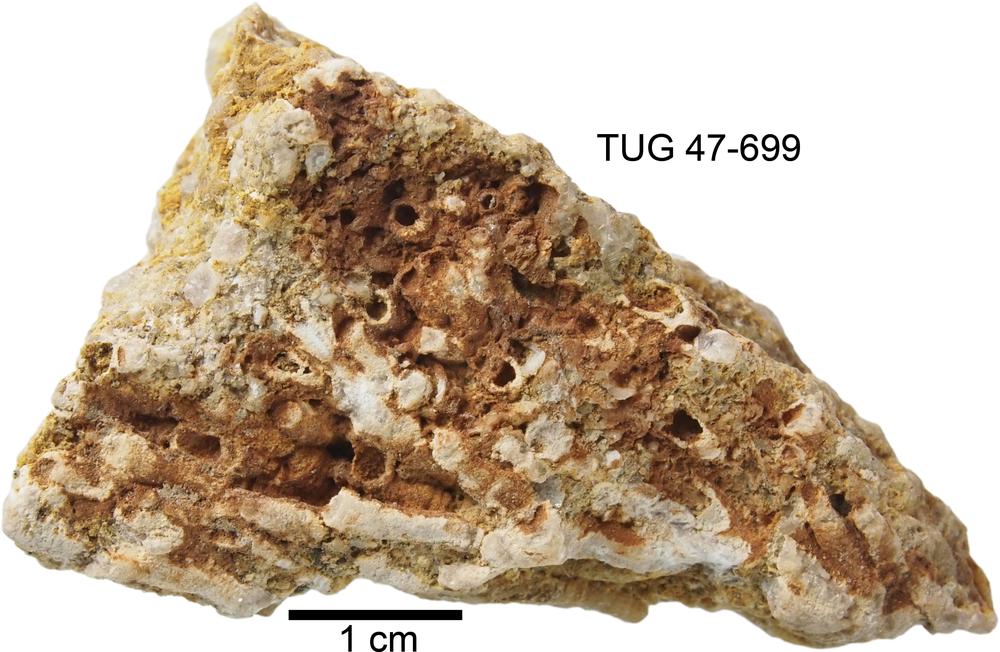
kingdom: Animalia
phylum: Cnidaria
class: Anthozoa
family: Auloporidae
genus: Eofletcheria
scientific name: Eofletcheria orvikui
